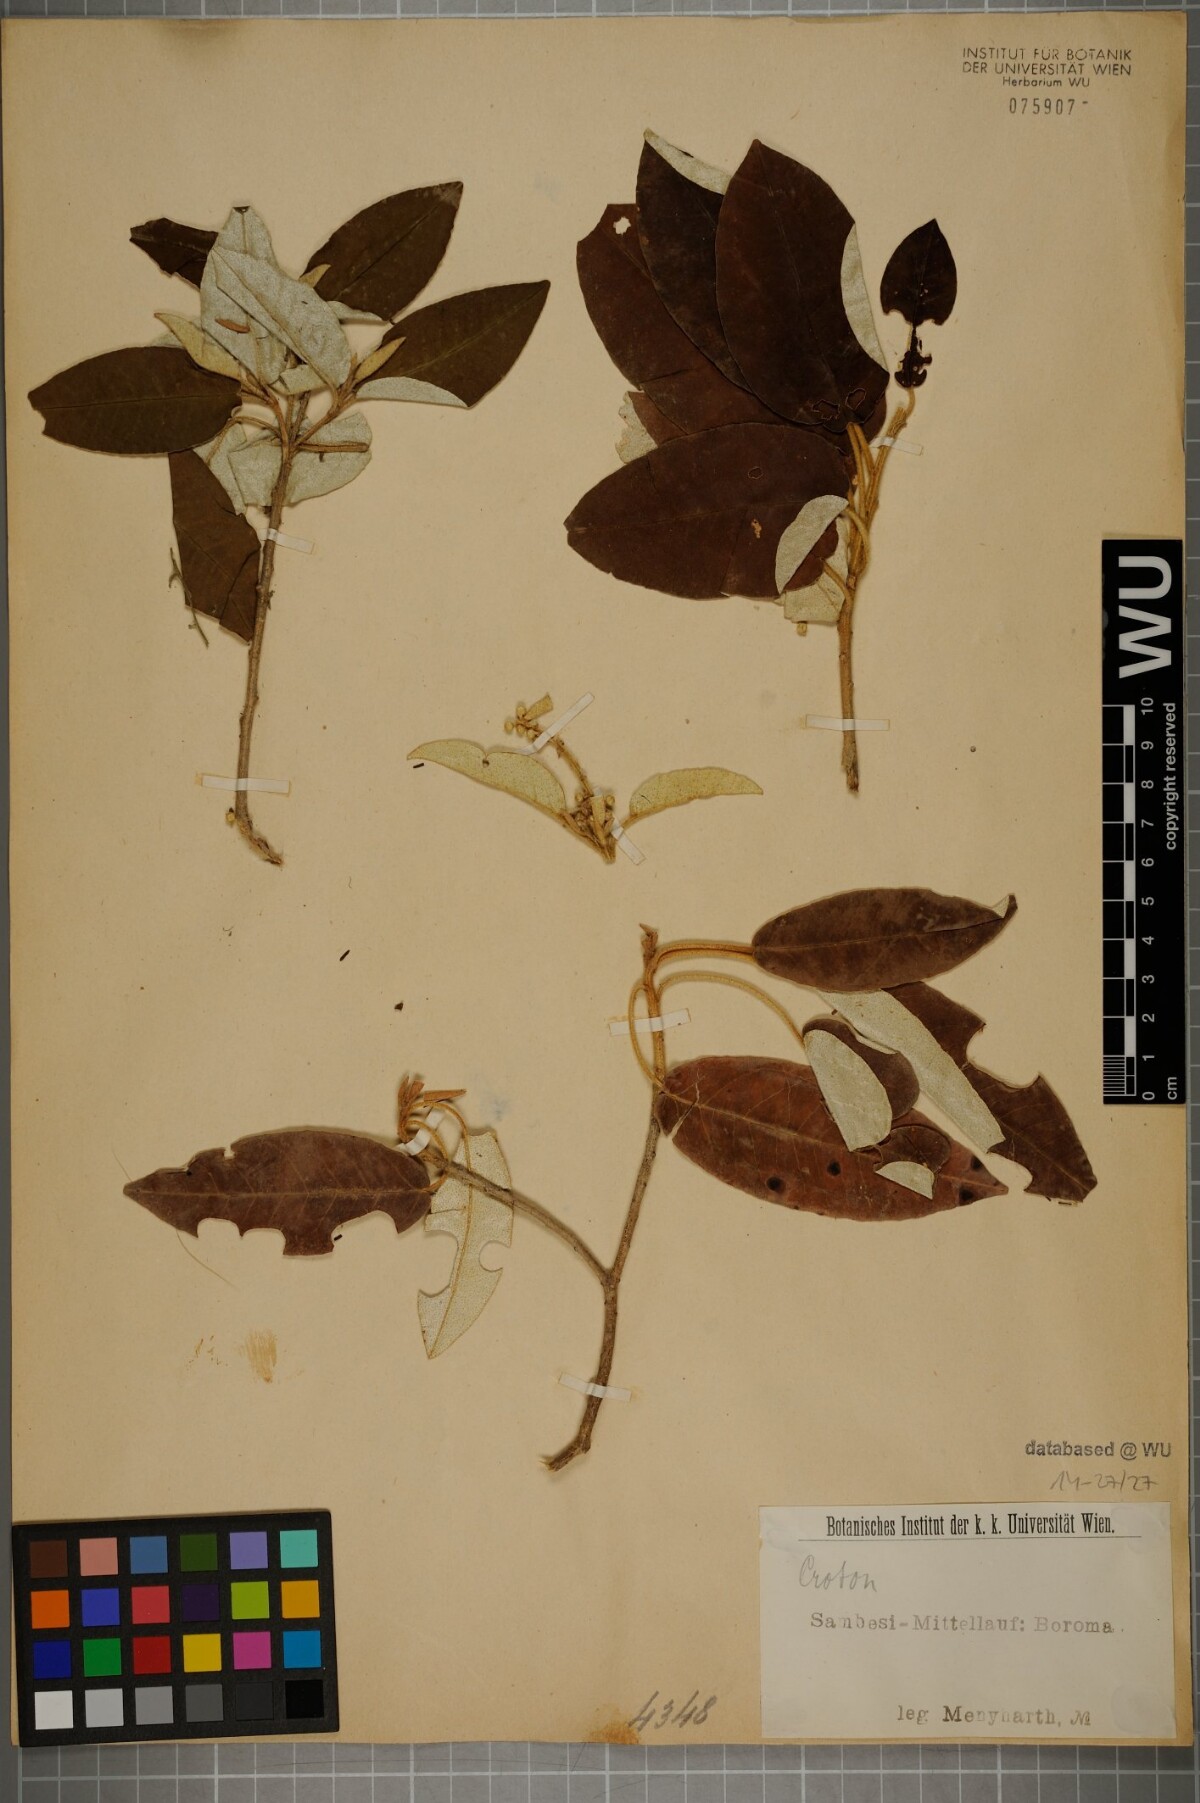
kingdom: Plantae
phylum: Tracheophyta
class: Magnoliopsida
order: Malpighiales
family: Euphorbiaceae
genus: Croton
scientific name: Croton
